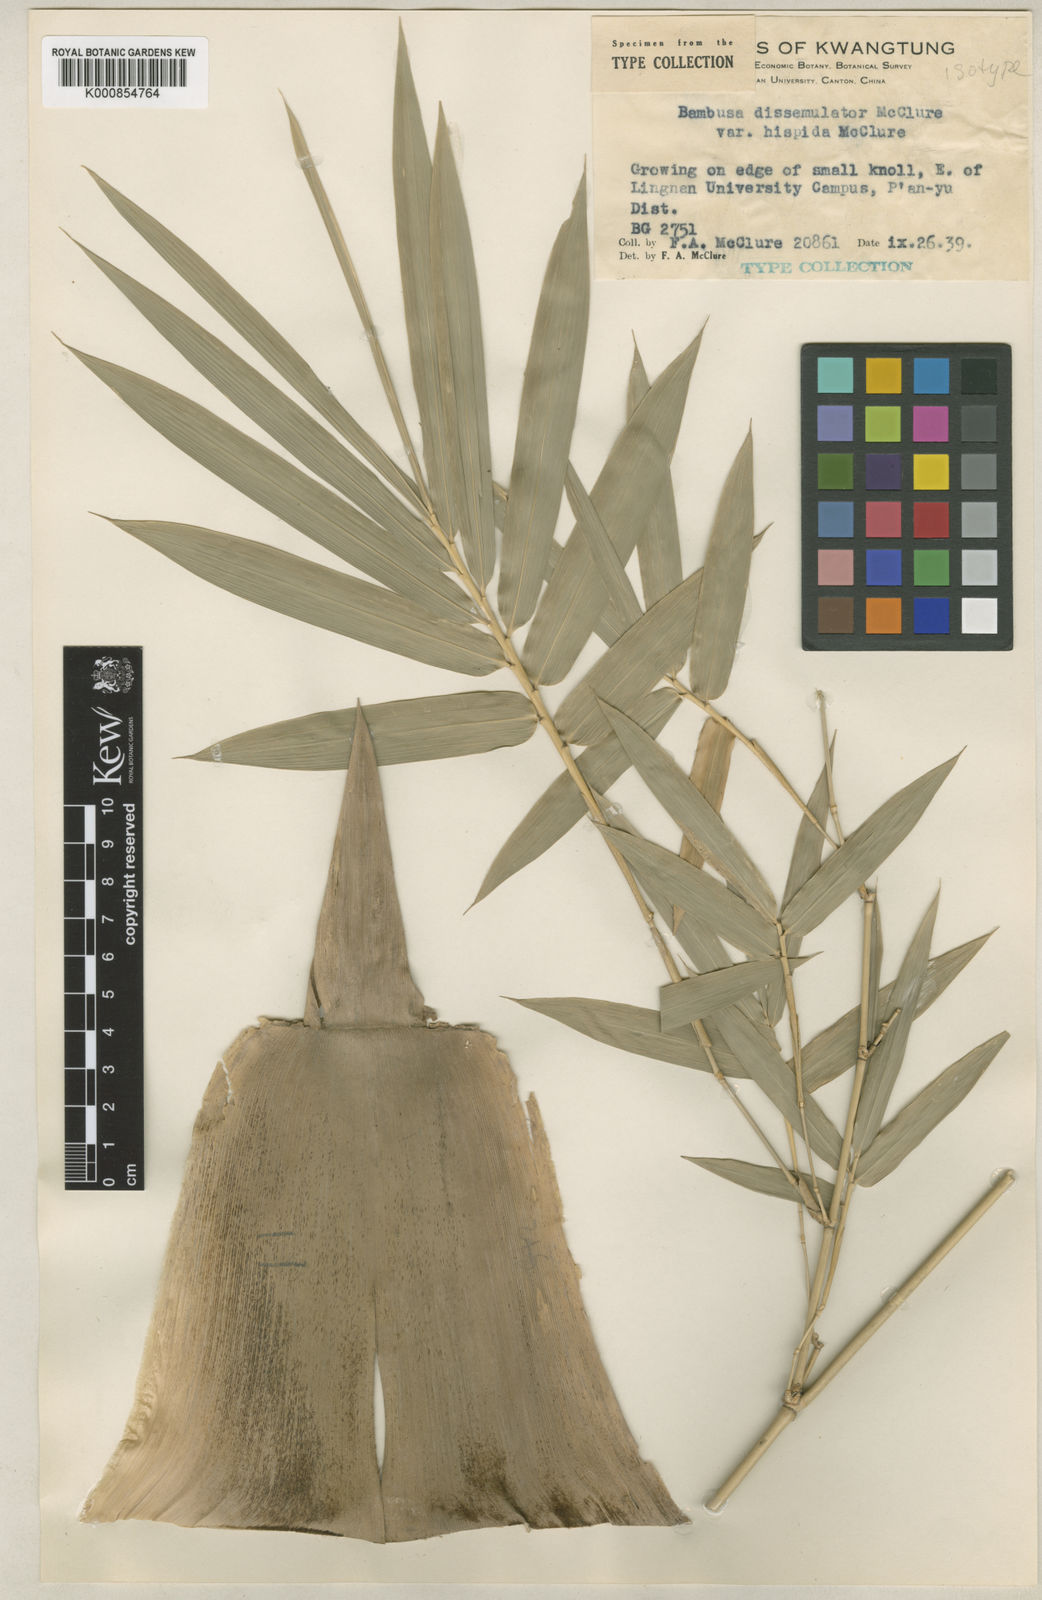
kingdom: Plantae
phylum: Tracheophyta
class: Liliopsida
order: Poales
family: Poaceae
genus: Bambusa
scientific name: Bambusa dissimulator
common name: Muddy bamboo
